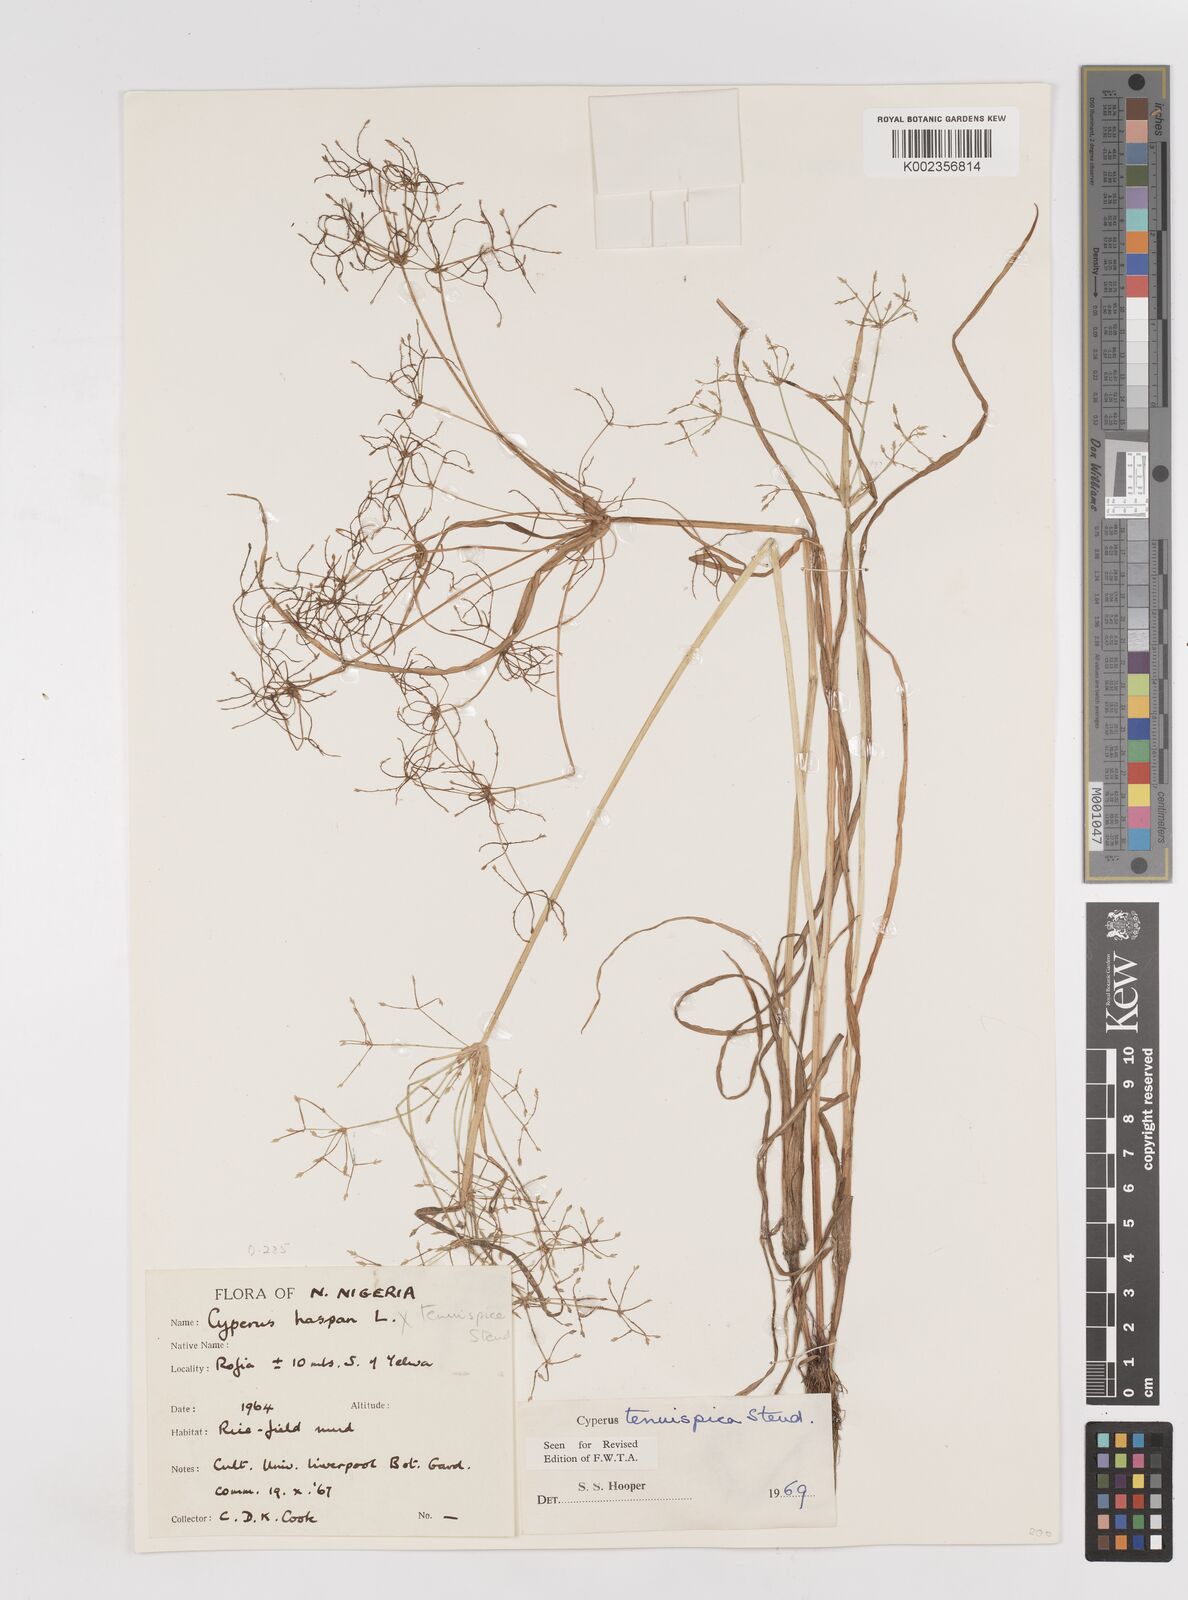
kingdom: Plantae
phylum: Tracheophyta
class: Liliopsida
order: Poales
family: Cyperaceae
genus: Cyperus
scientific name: Cyperus tenuispica
